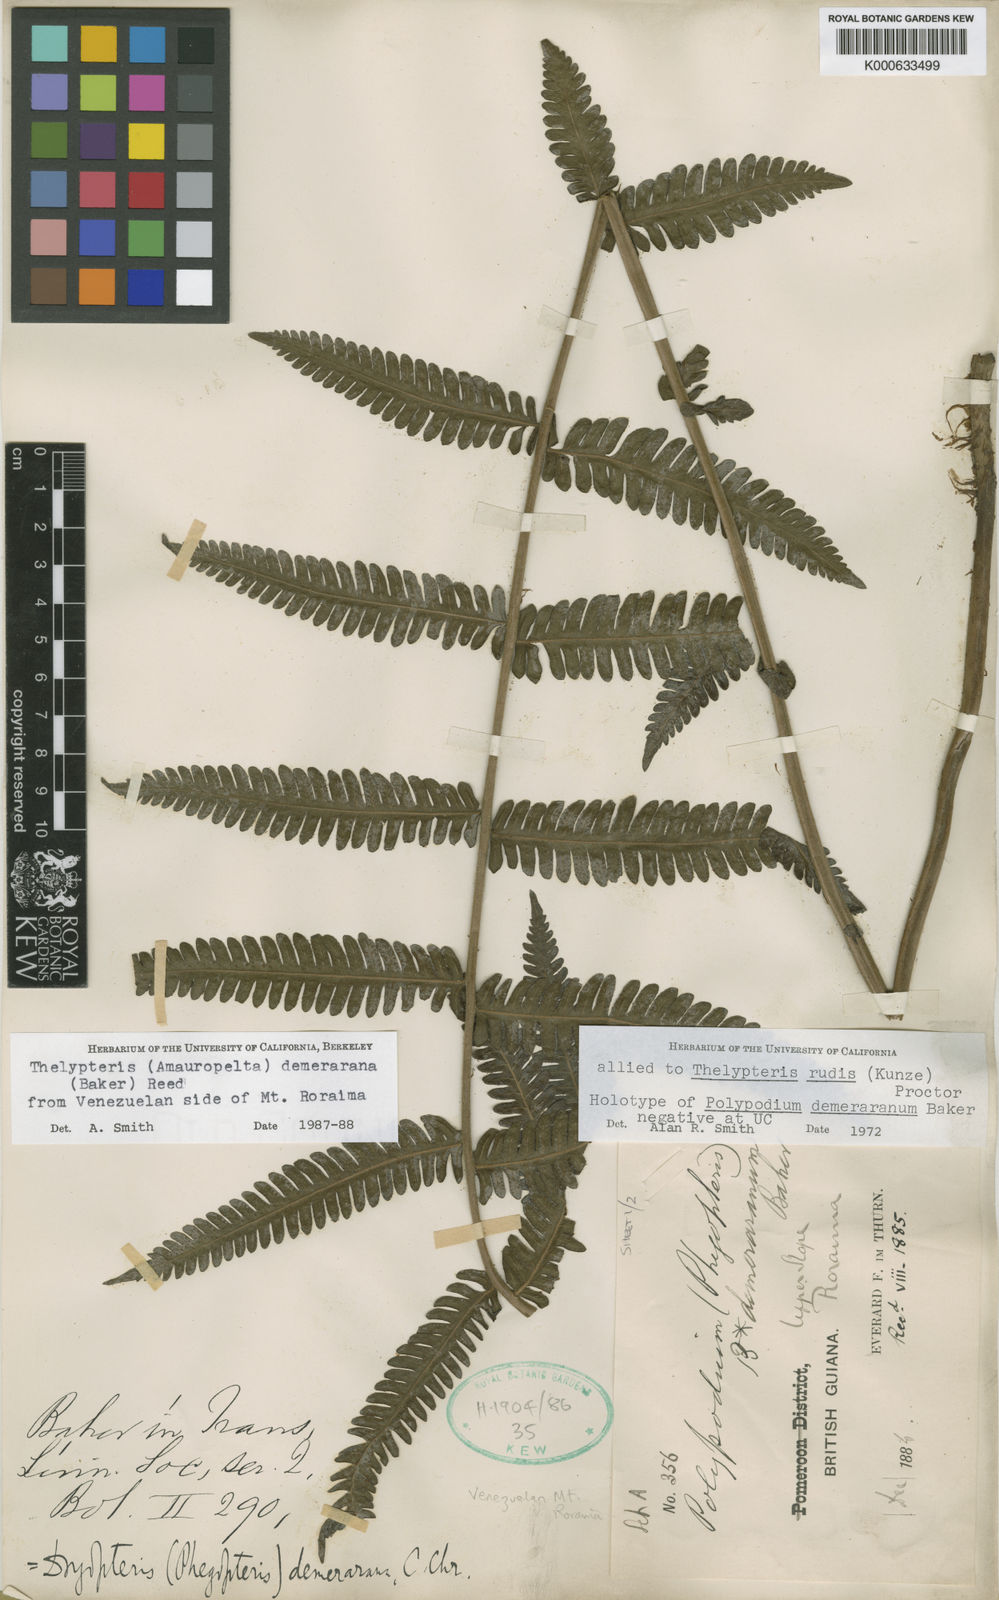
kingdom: Plantae
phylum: Tracheophyta
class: Polypodiopsida
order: Polypodiales
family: Thelypteridaceae
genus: Amauropelta
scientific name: Amauropelta demerarana
